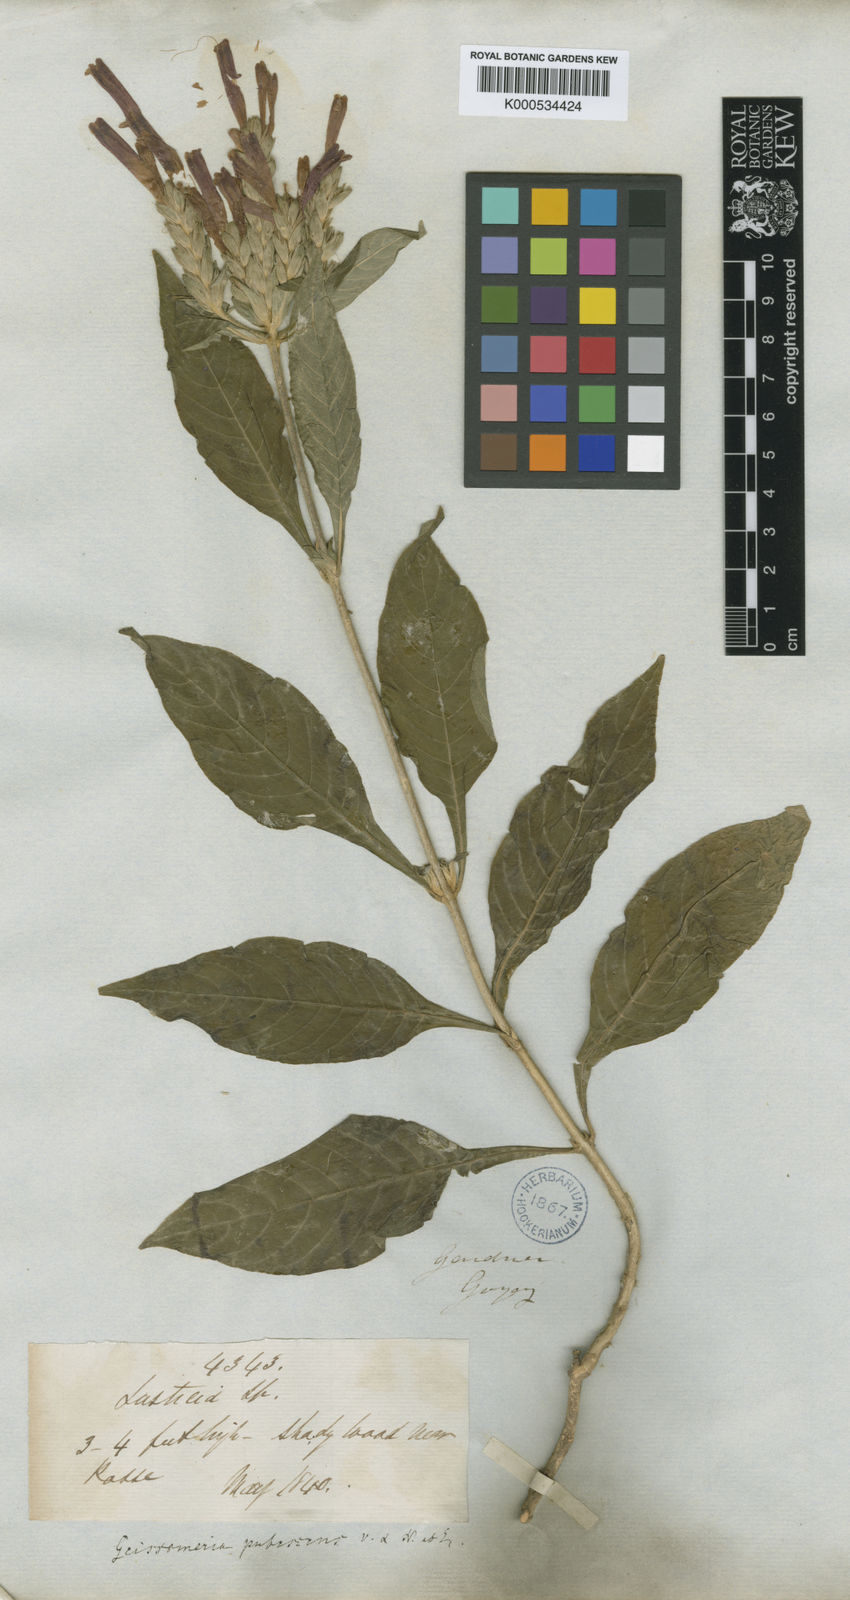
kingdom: Plantae
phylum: Tracheophyta
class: Magnoliopsida
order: Lamiales
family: Acanthaceae
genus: Aphelandra
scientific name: Aphelandra longiflora
